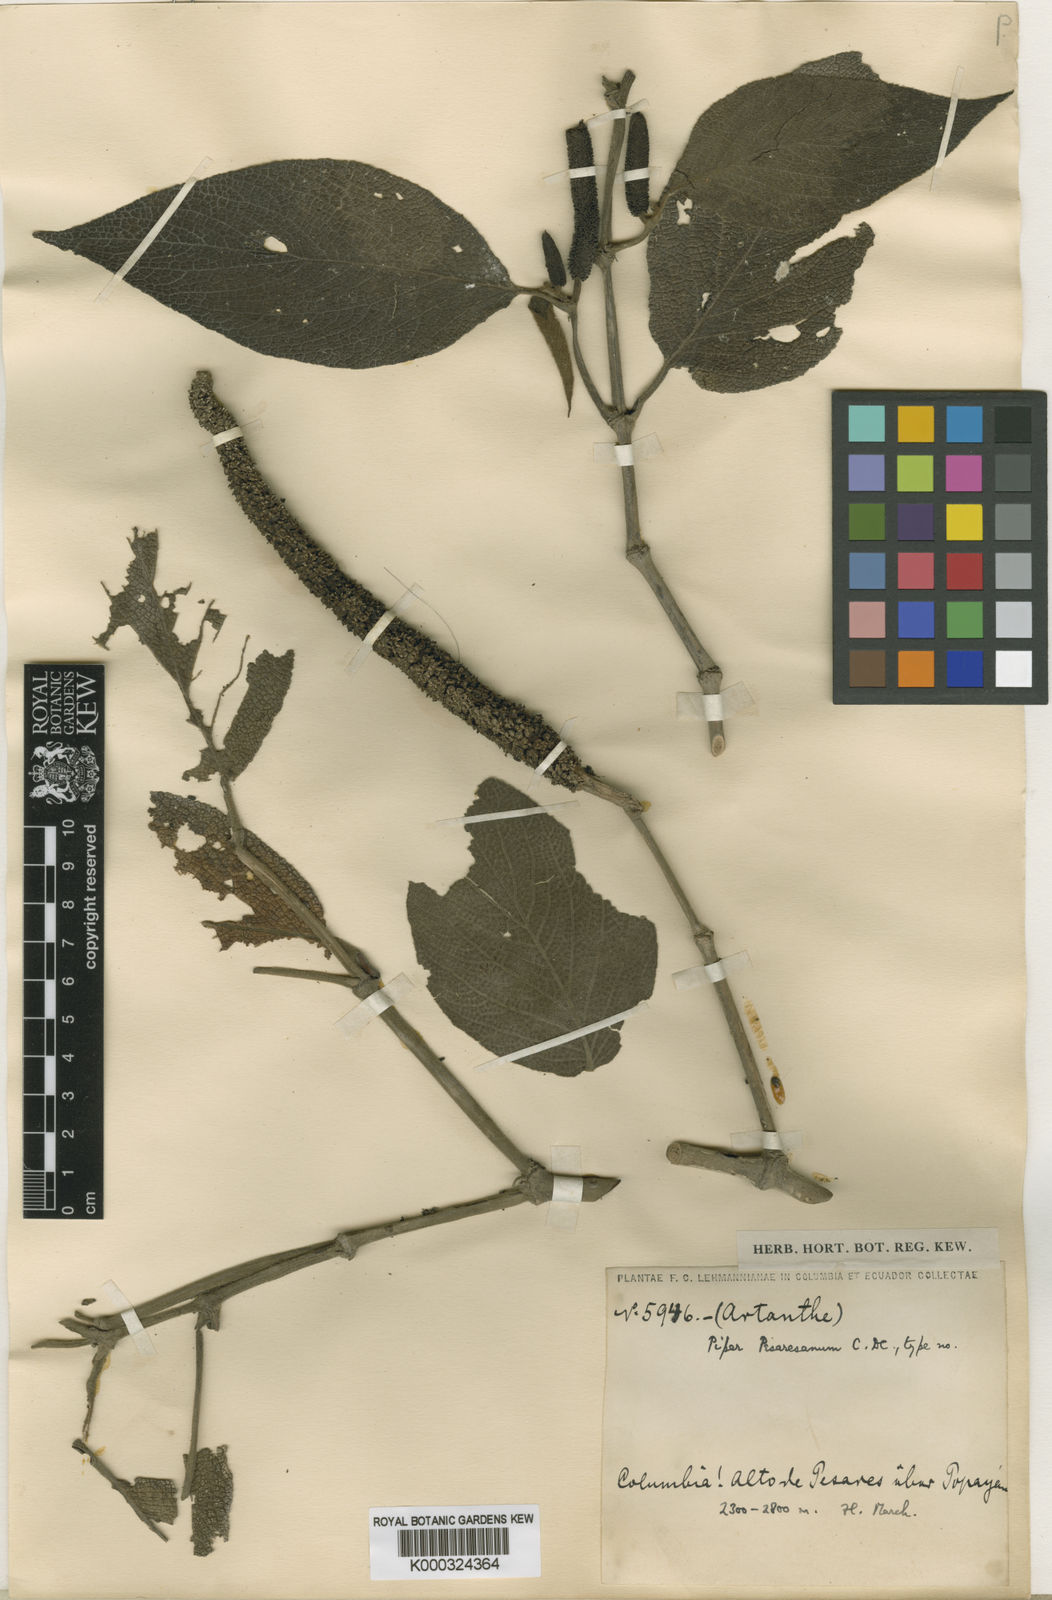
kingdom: Plantae
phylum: Tracheophyta
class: Magnoliopsida
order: Piperales
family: Piperaceae
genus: Piper
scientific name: Piper irazuanum
